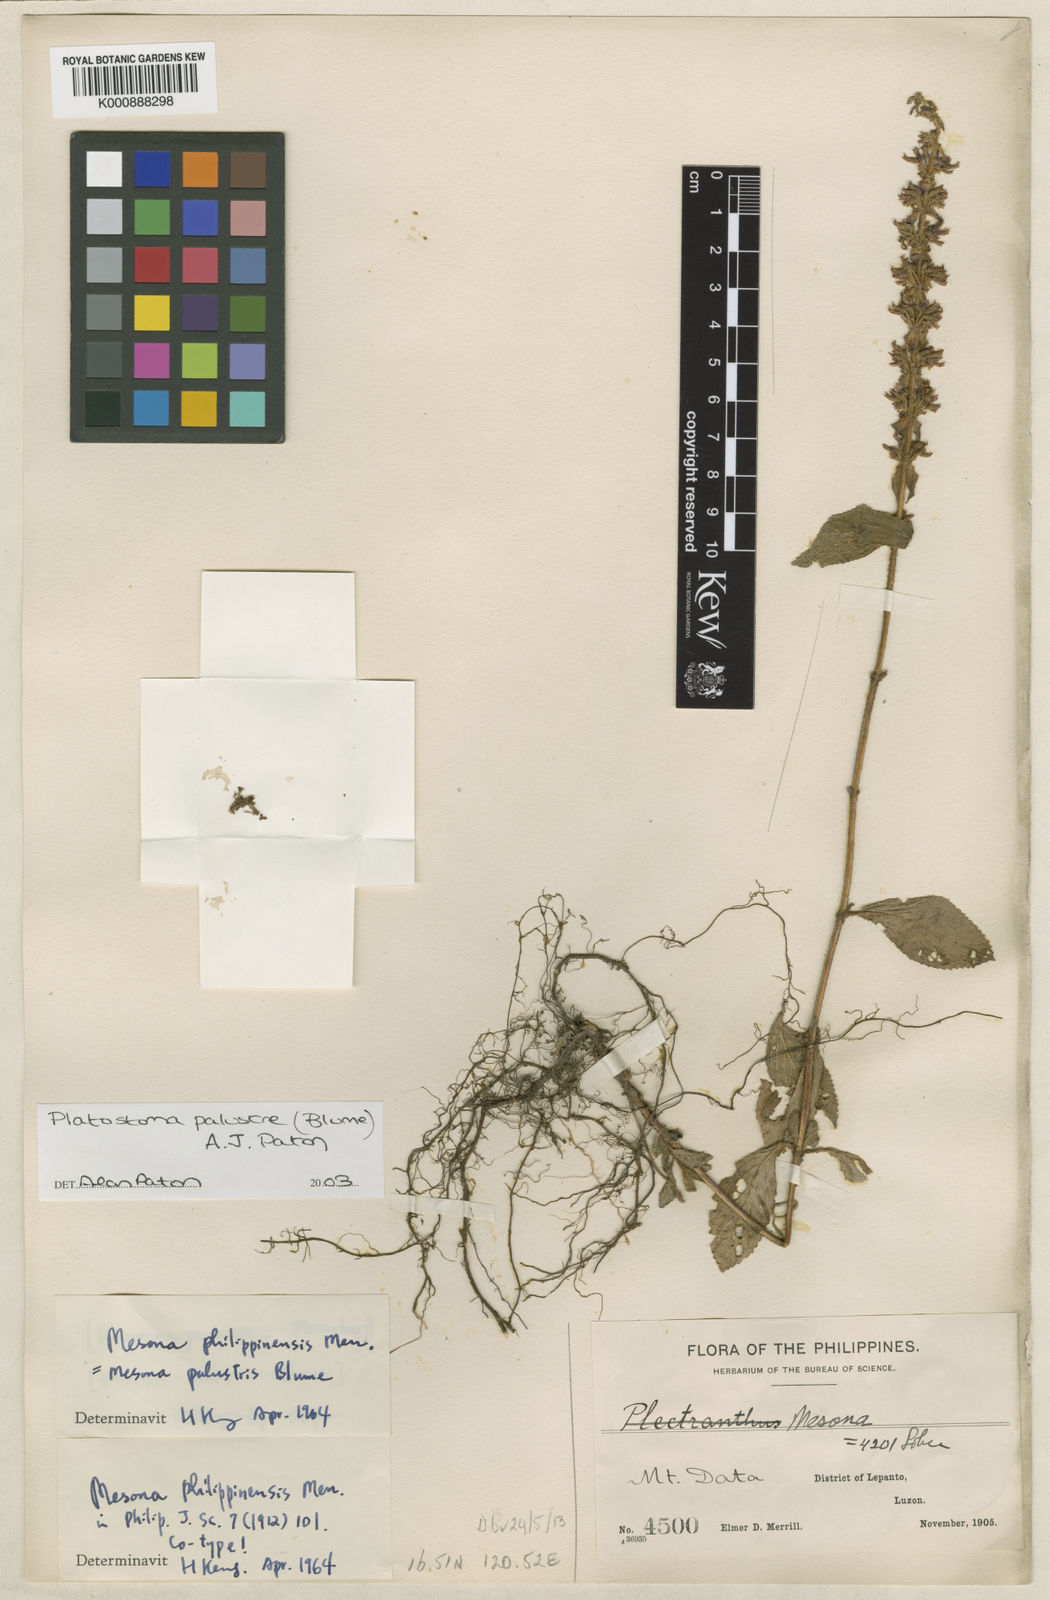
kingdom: Plantae
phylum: Tracheophyta
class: Magnoliopsida
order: Lamiales
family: Lamiaceae
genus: Platostoma
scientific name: Platostoma palustre
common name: Black cincau
